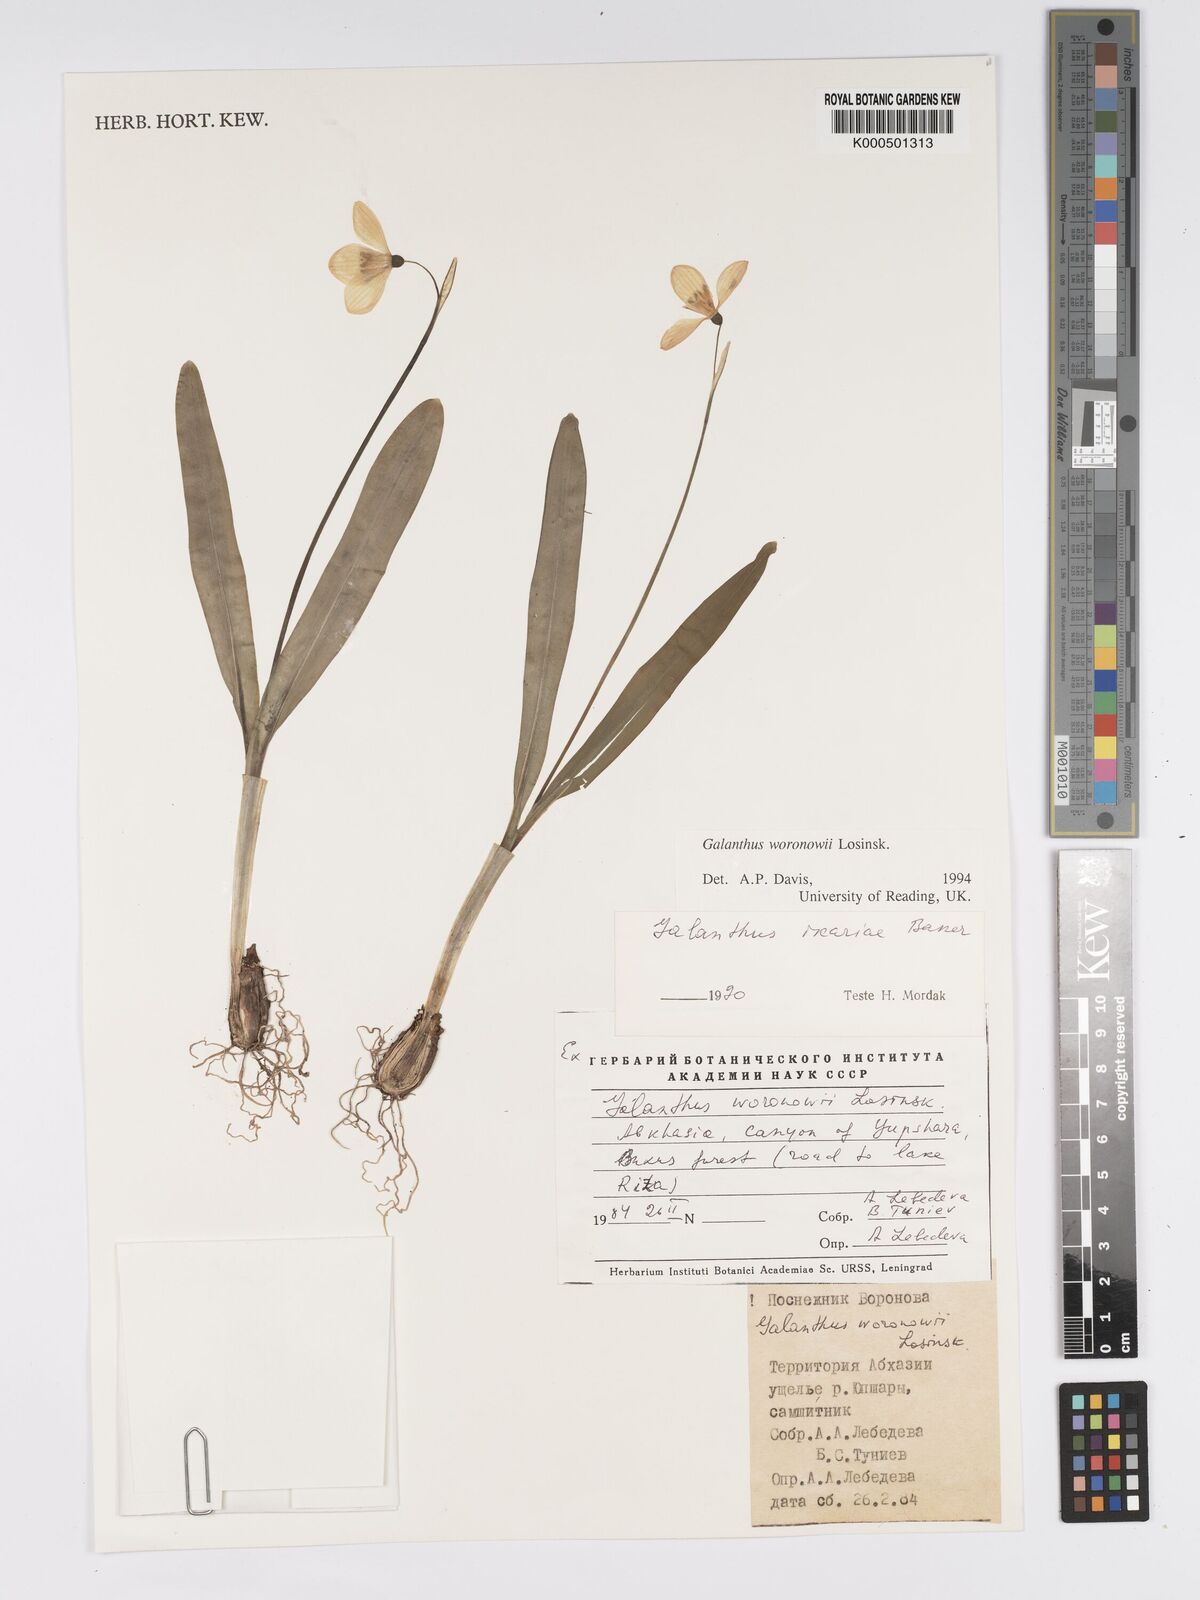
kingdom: Plantae
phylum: Tracheophyta
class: Liliopsida
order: Asparagales
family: Amaryllidaceae
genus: Galanthus
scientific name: Galanthus woronowii
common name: Green snowdrop
